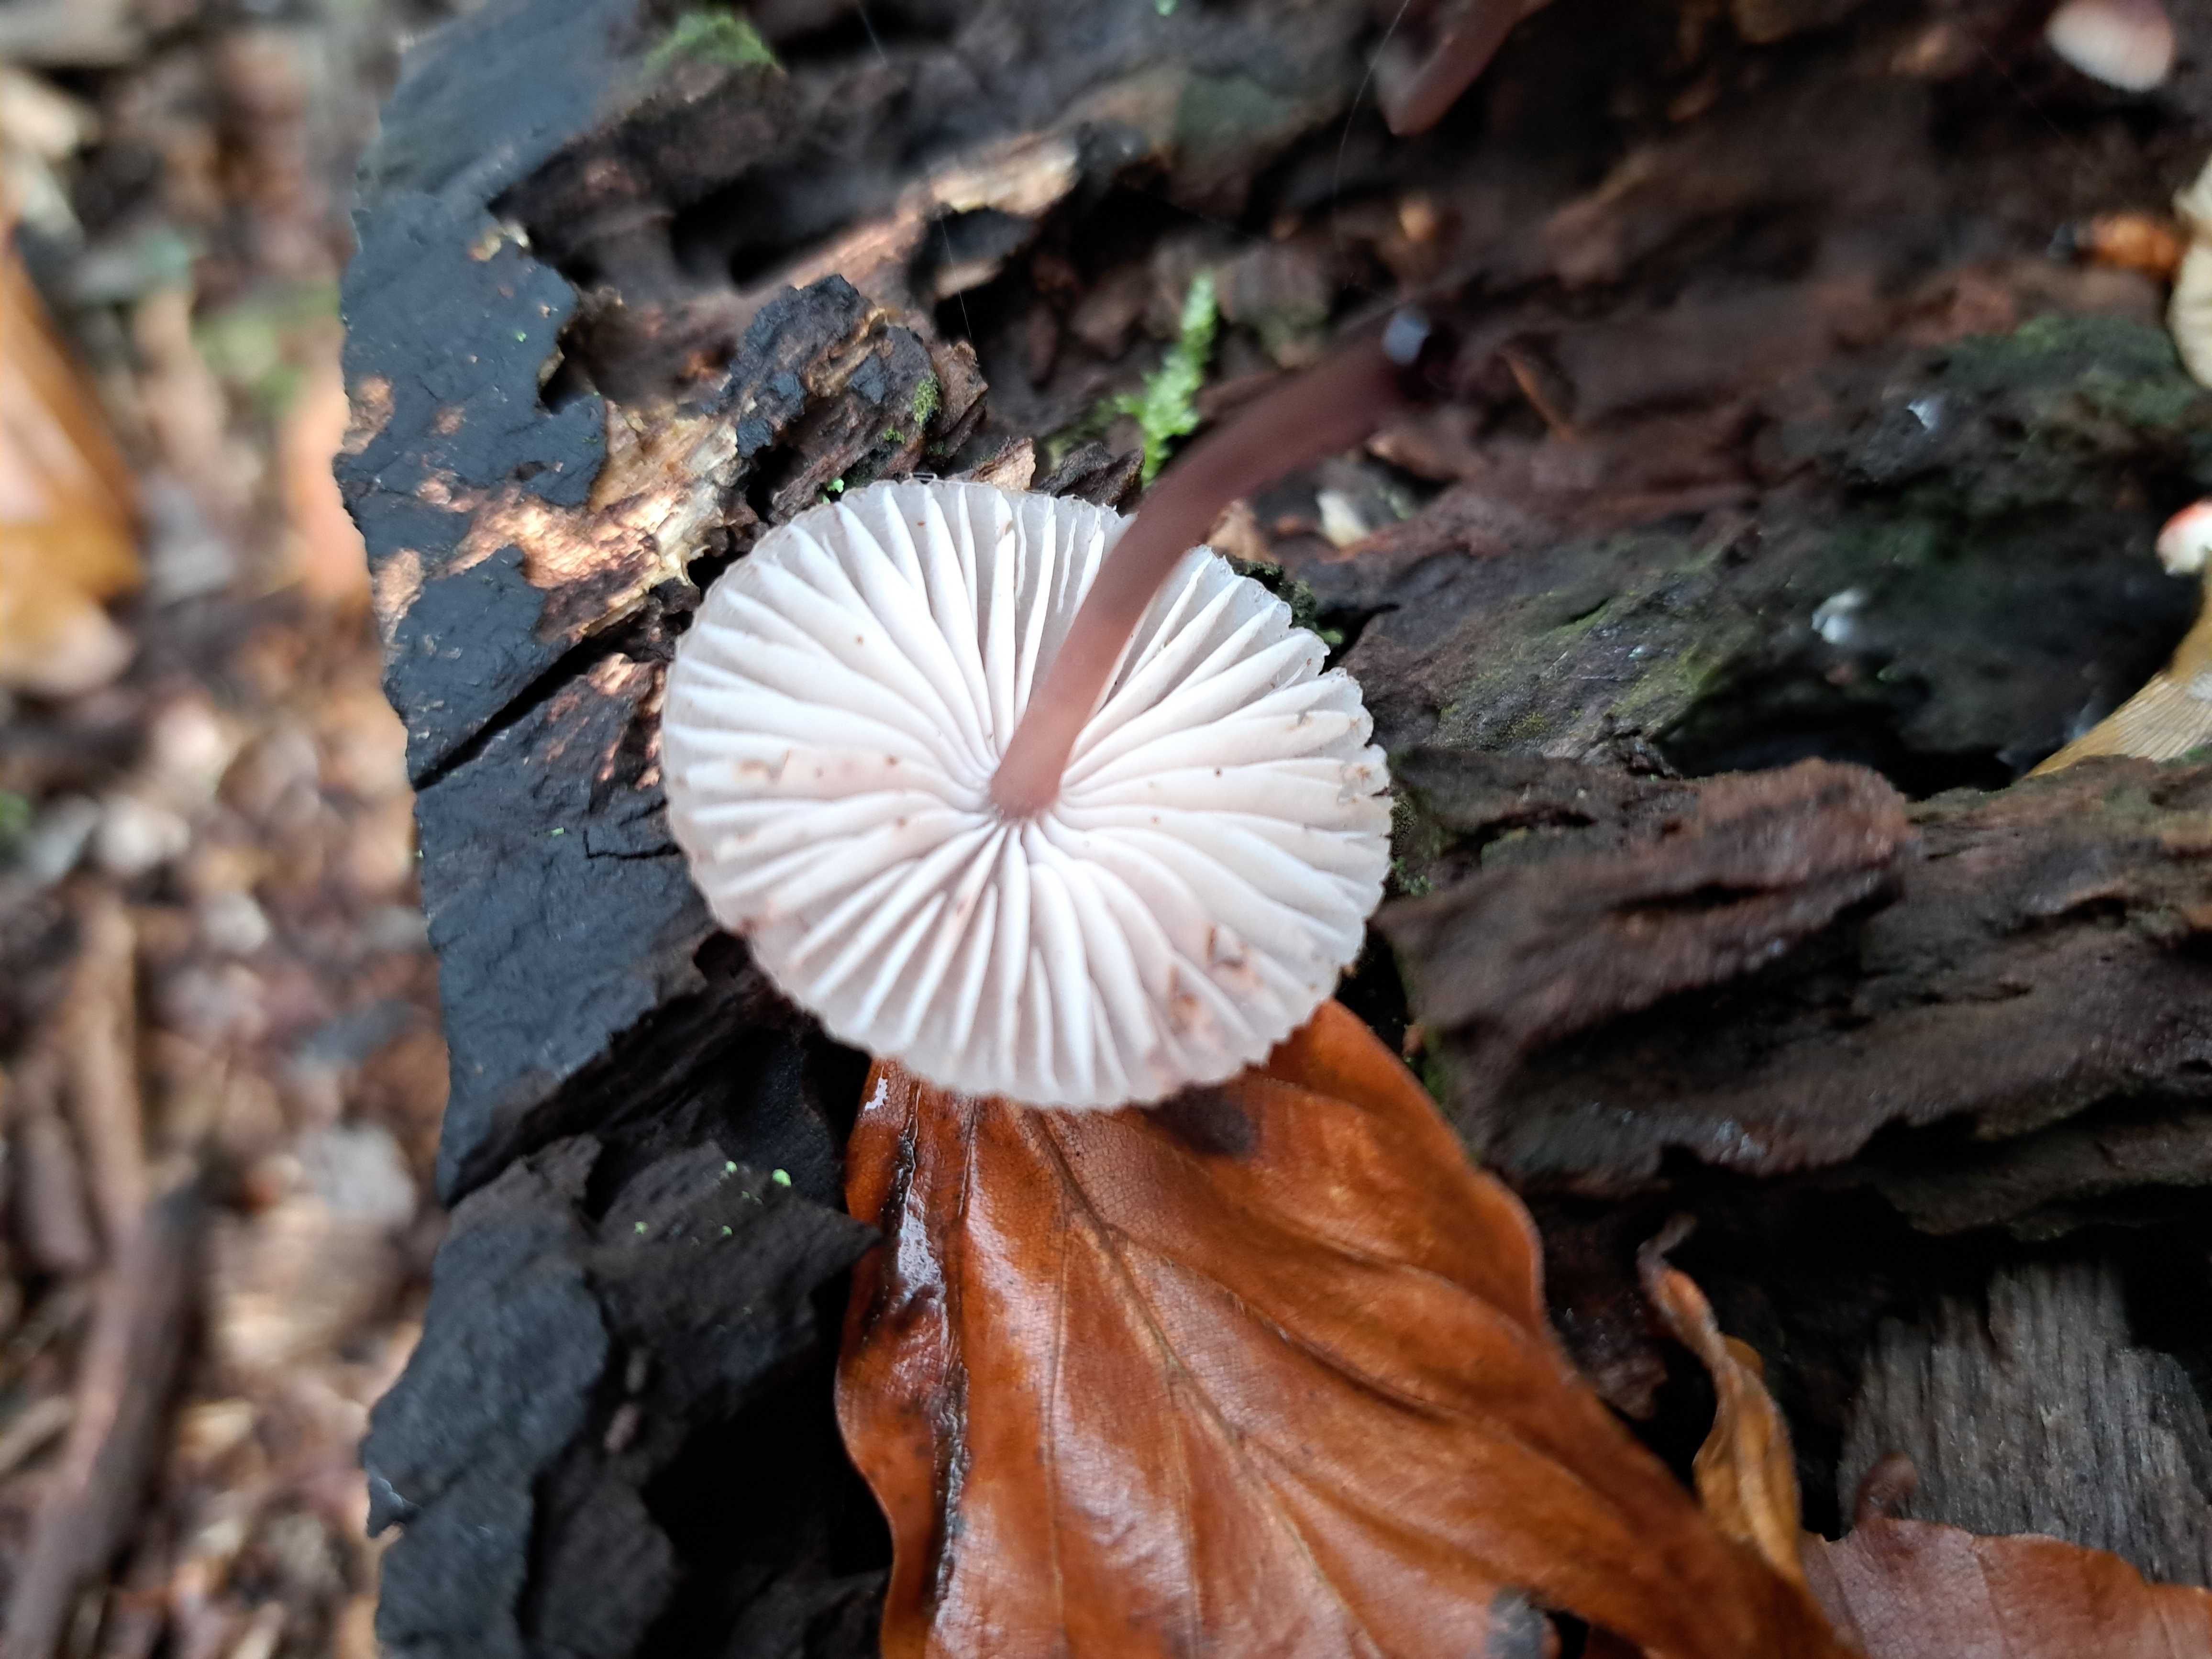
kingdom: Fungi
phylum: Basidiomycota
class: Agaricomycetes
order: Agaricales
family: Mycenaceae
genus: Mycena
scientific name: Mycena haematopus
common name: blødende huesvamp
